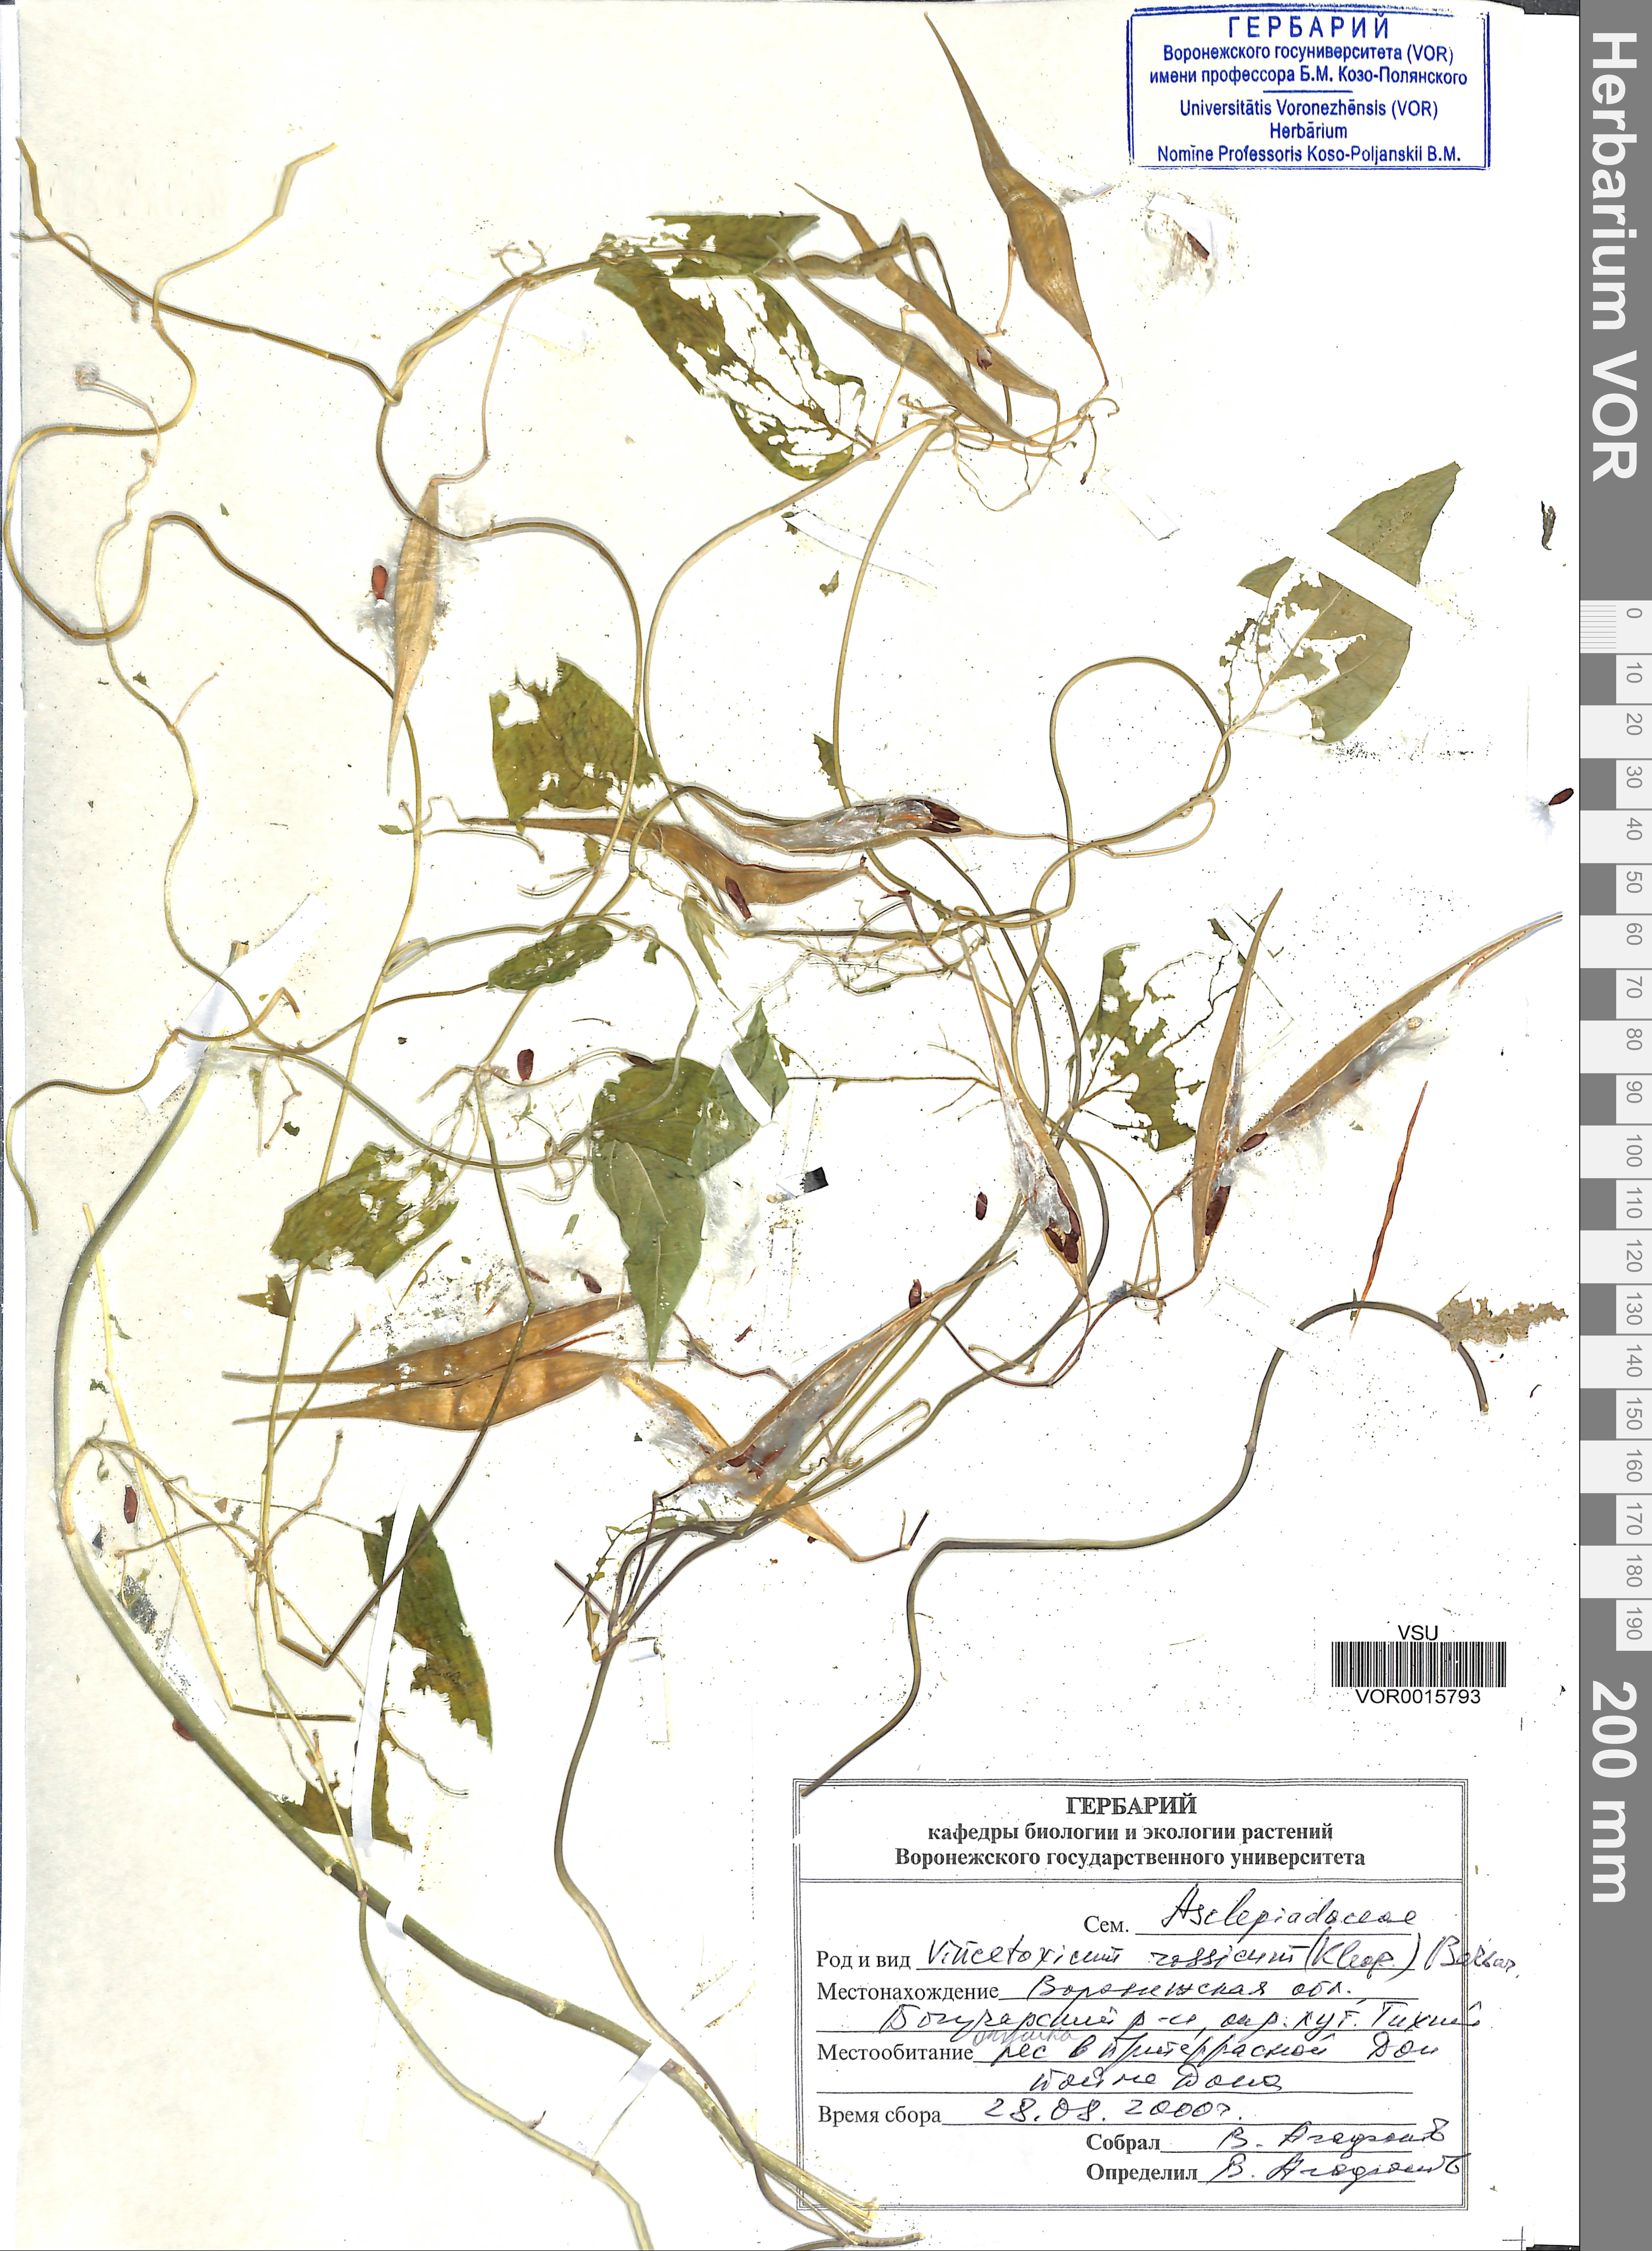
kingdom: Plantae
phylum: Tracheophyta
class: Magnoliopsida
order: Gentianales
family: Apocynaceae
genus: Vincetoxicum
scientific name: Vincetoxicum rossicum
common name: Dog-strangling vine
